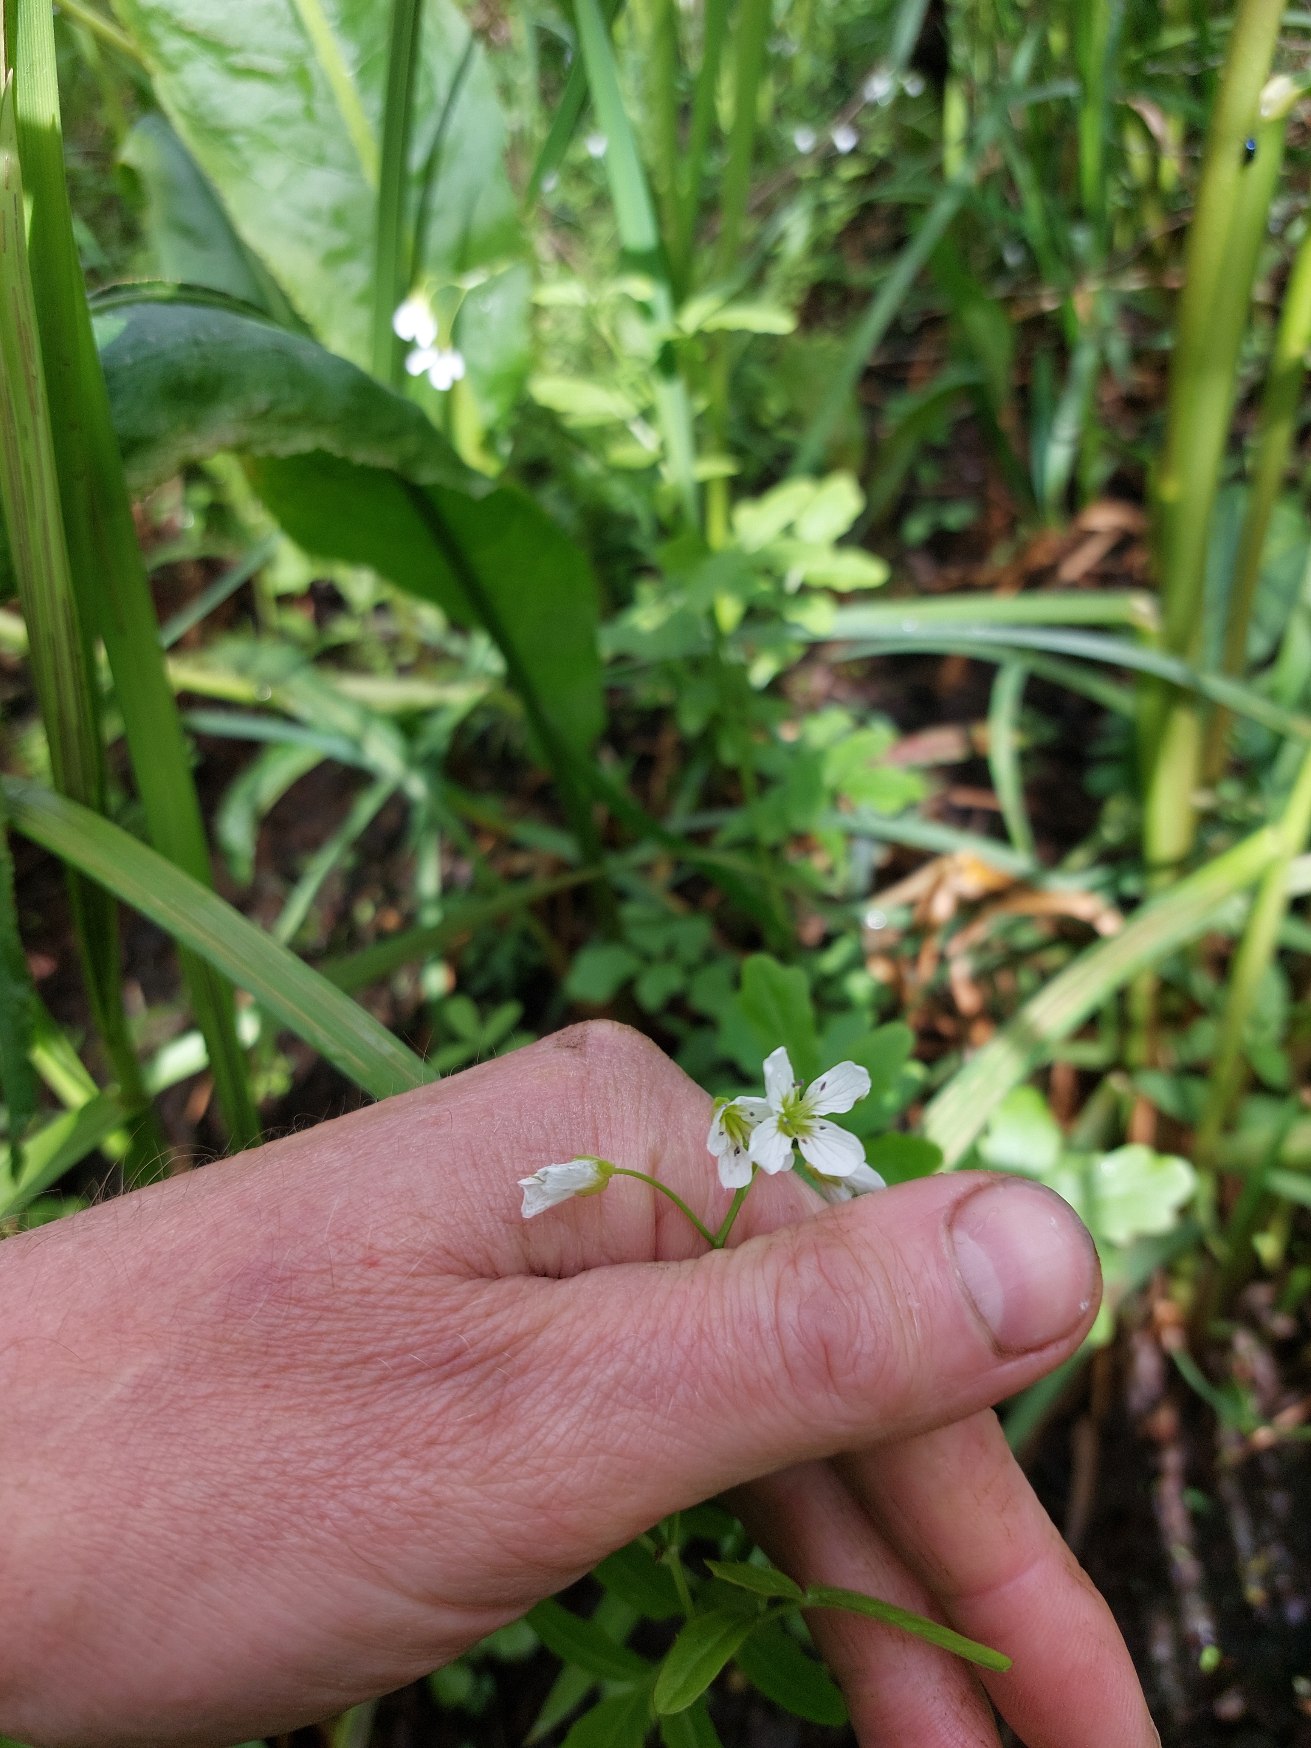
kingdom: Plantae
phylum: Tracheophyta
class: Magnoliopsida
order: Brassicales
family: Brassicaceae
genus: Cardamine
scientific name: Cardamine amara
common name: Vandkarse
